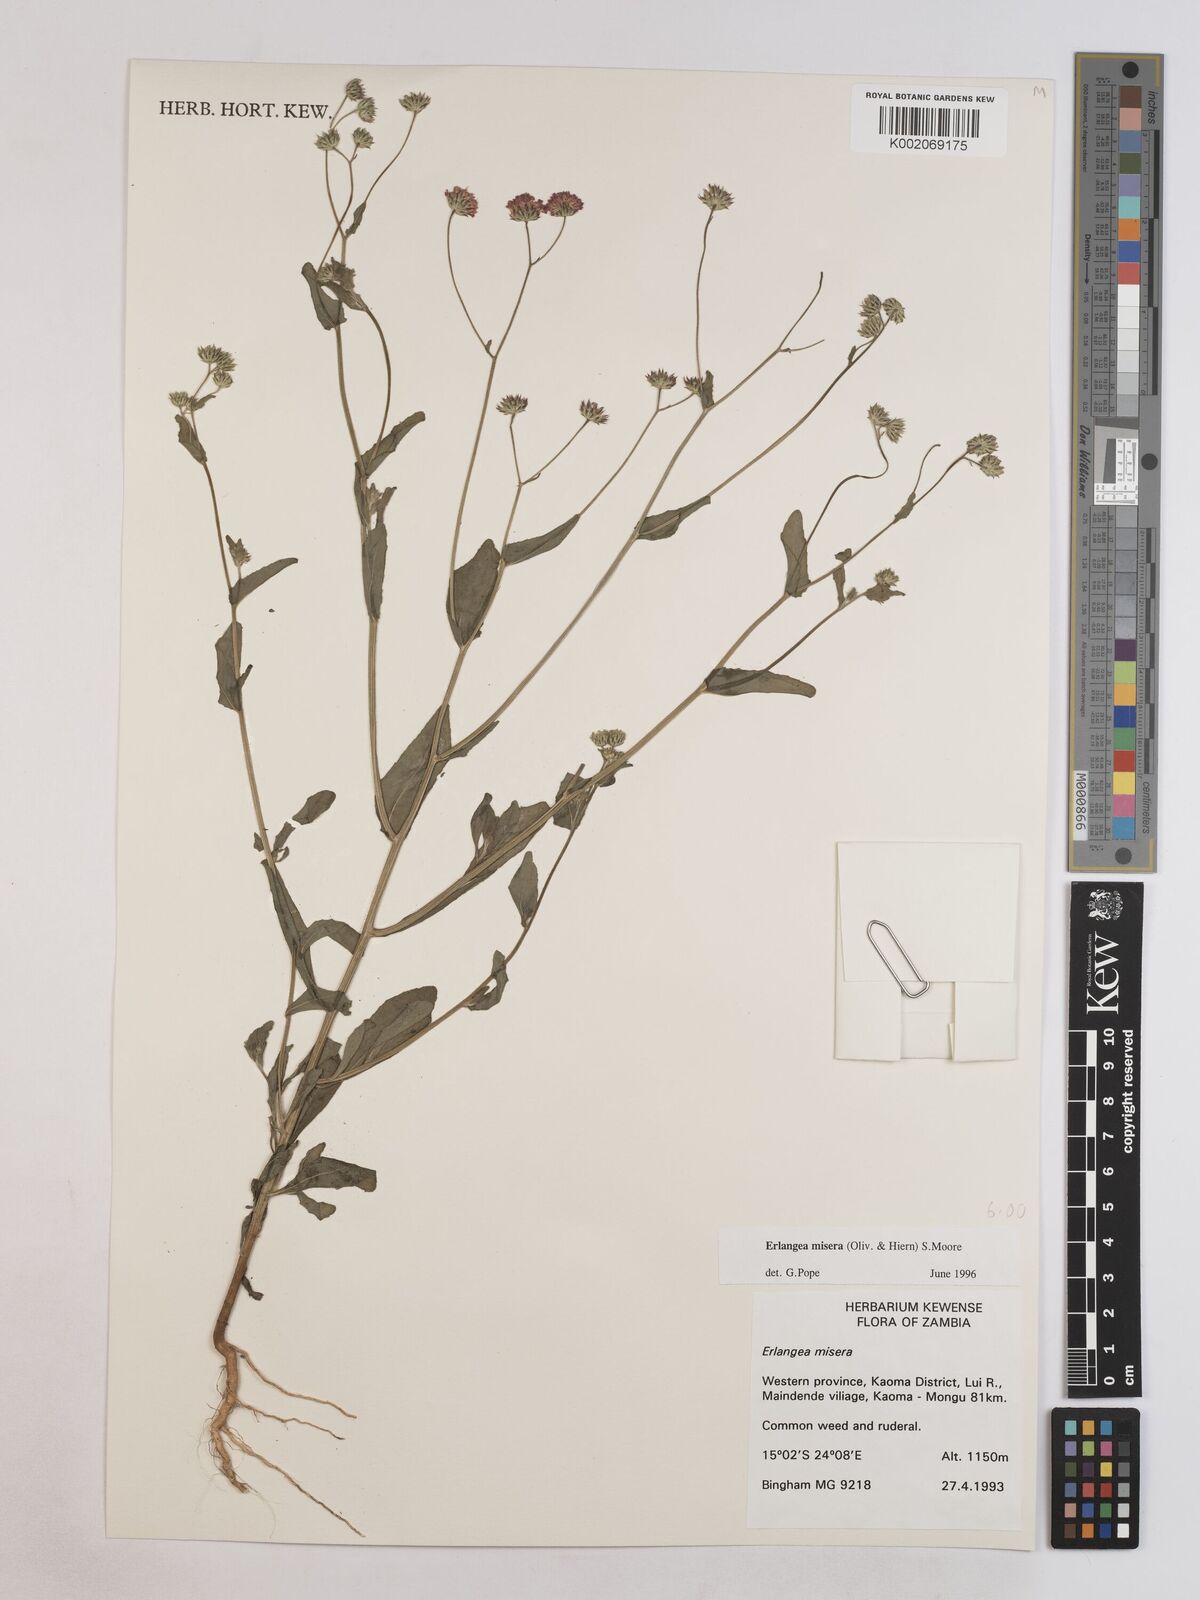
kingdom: Plantae
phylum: Tracheophyta
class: Magnoliopsida
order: Asterales
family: Asteraceae
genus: Erlangea
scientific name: Erlangea misera
